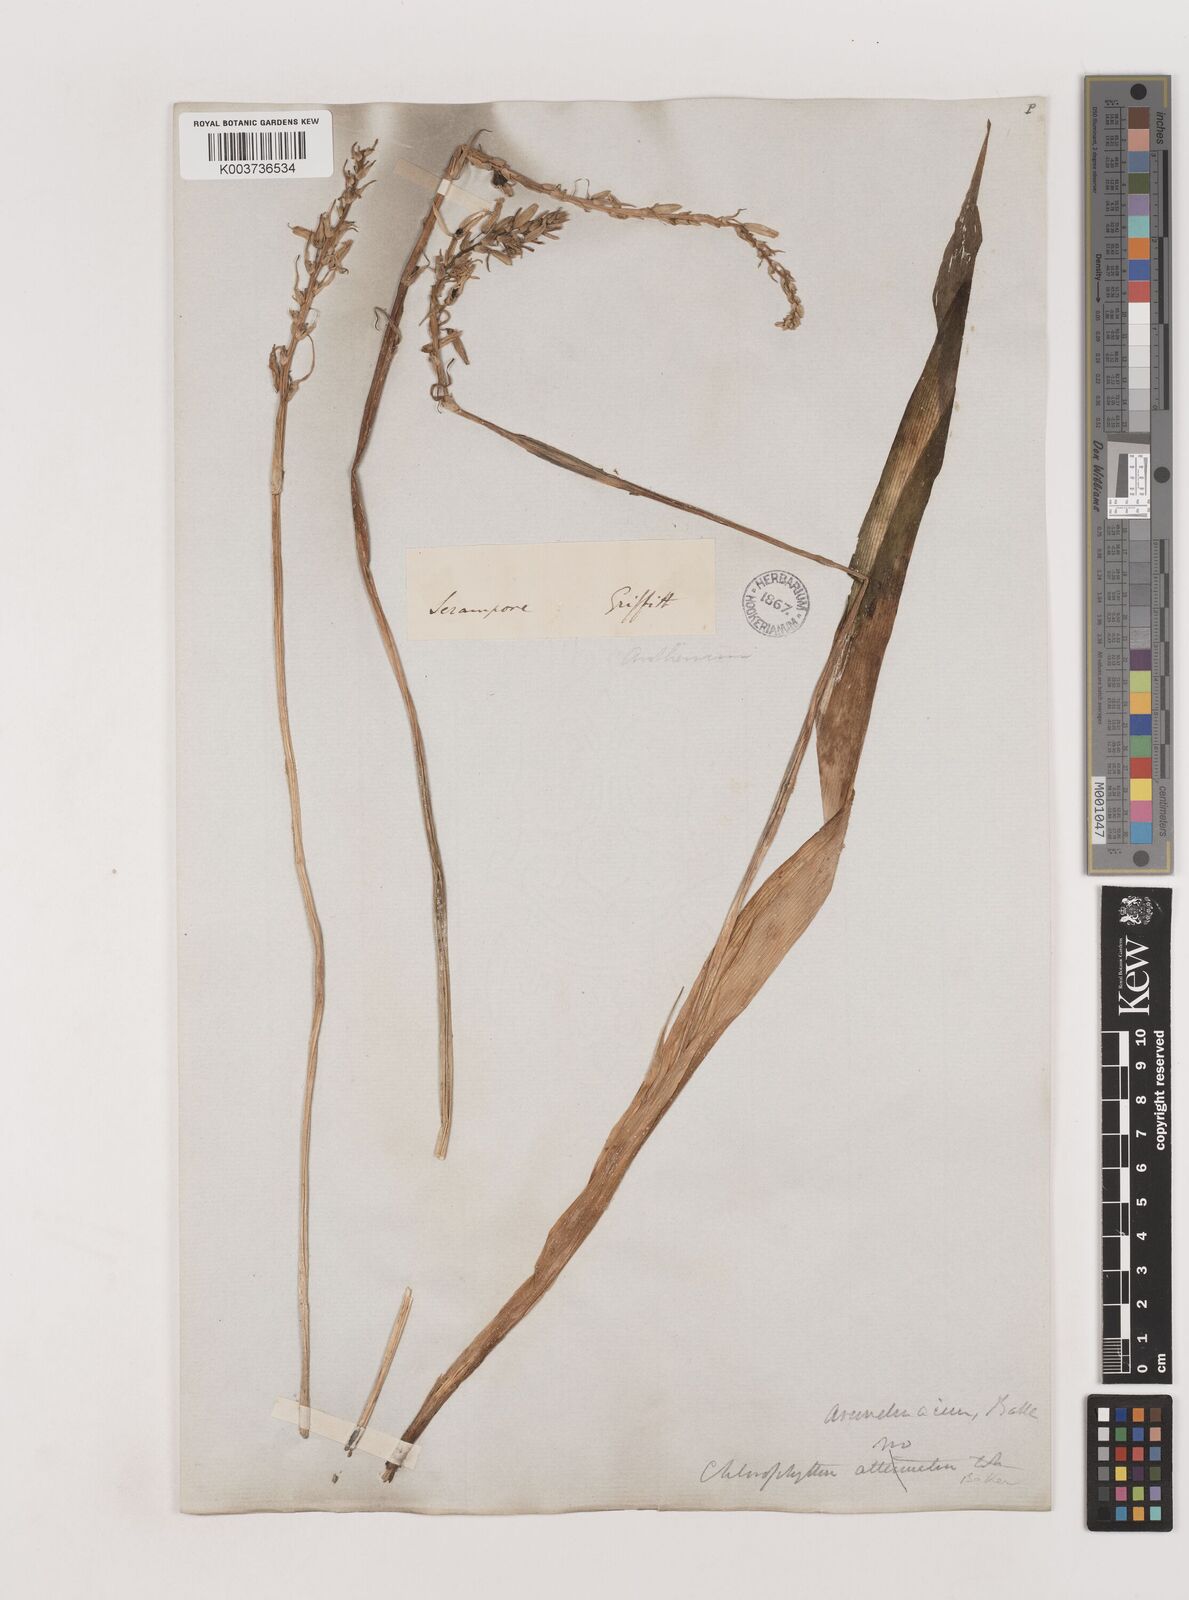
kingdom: Plantae
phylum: Tracheophyta
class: Liliopsida
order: Asparagales
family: Asparagaceae
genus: Chlorophytum
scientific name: Chlorophytum arundinaceum
